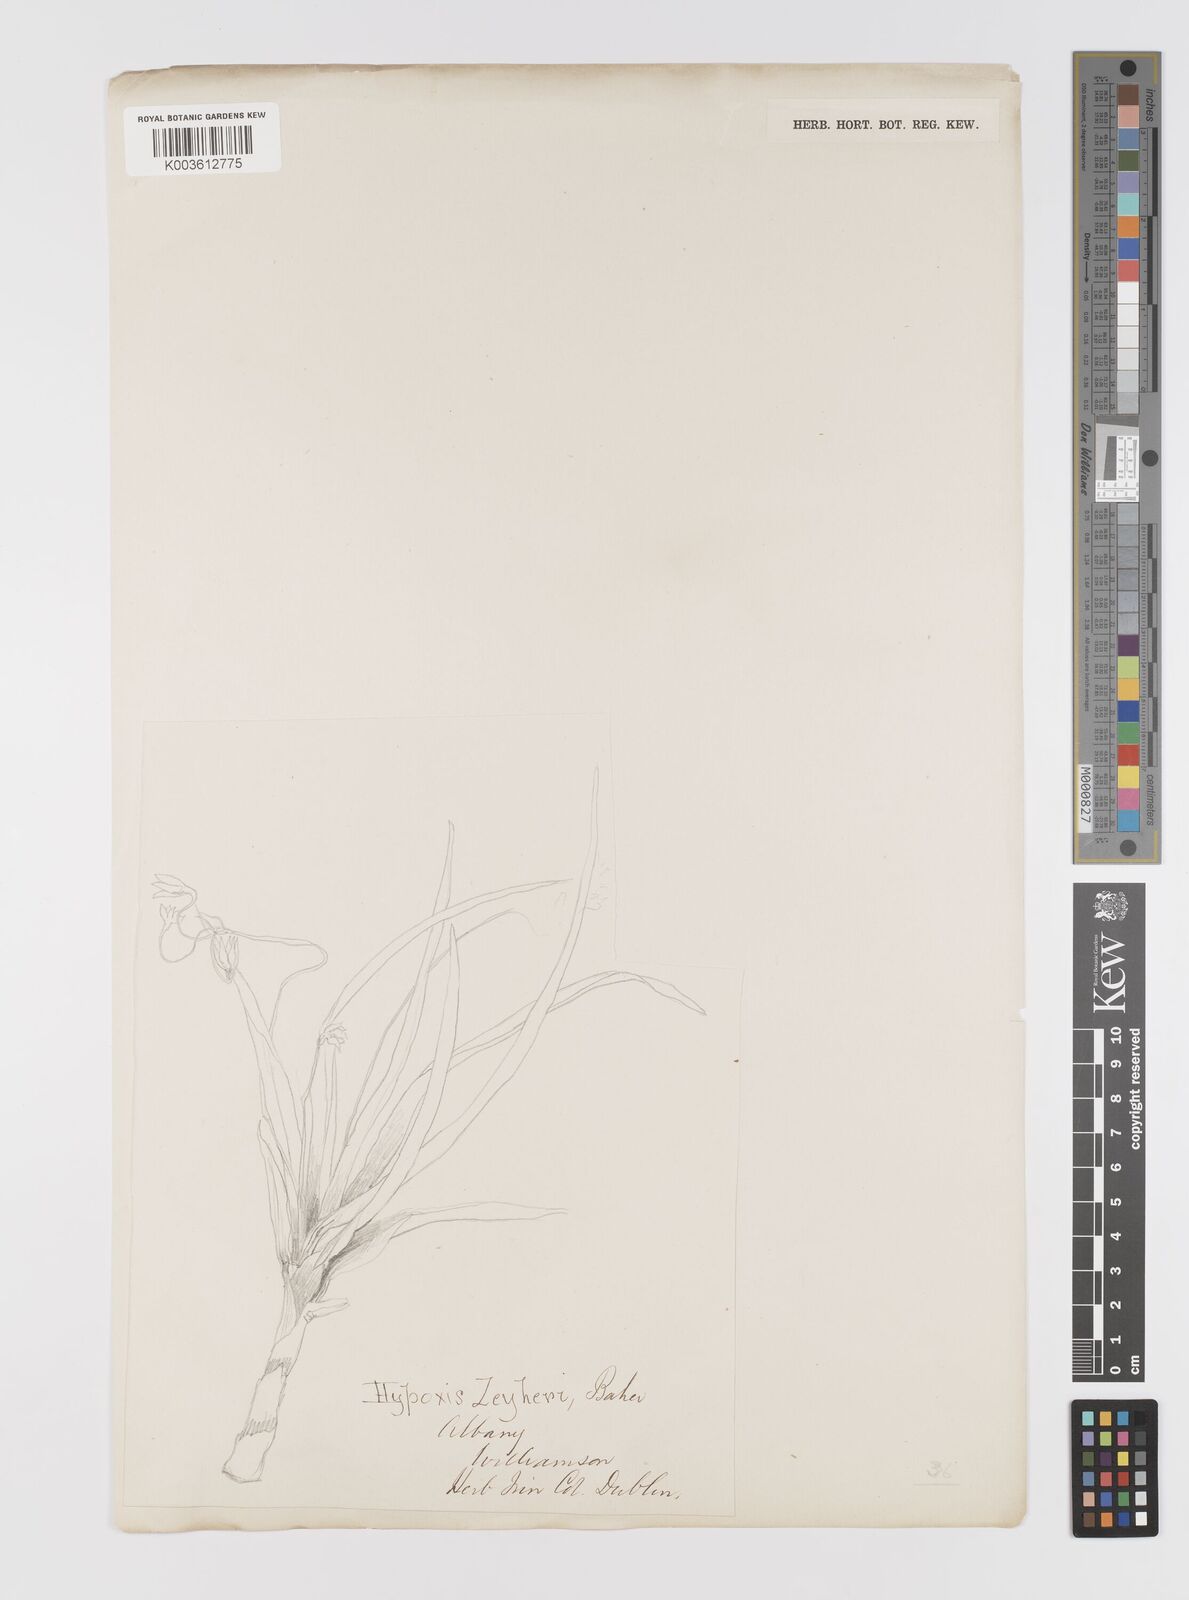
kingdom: Plantae
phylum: Tracheophyta
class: Liliopsida
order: Asparagales
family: Hypoxidaceae
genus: Hypoxis
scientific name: Hypoxis zeyheri
